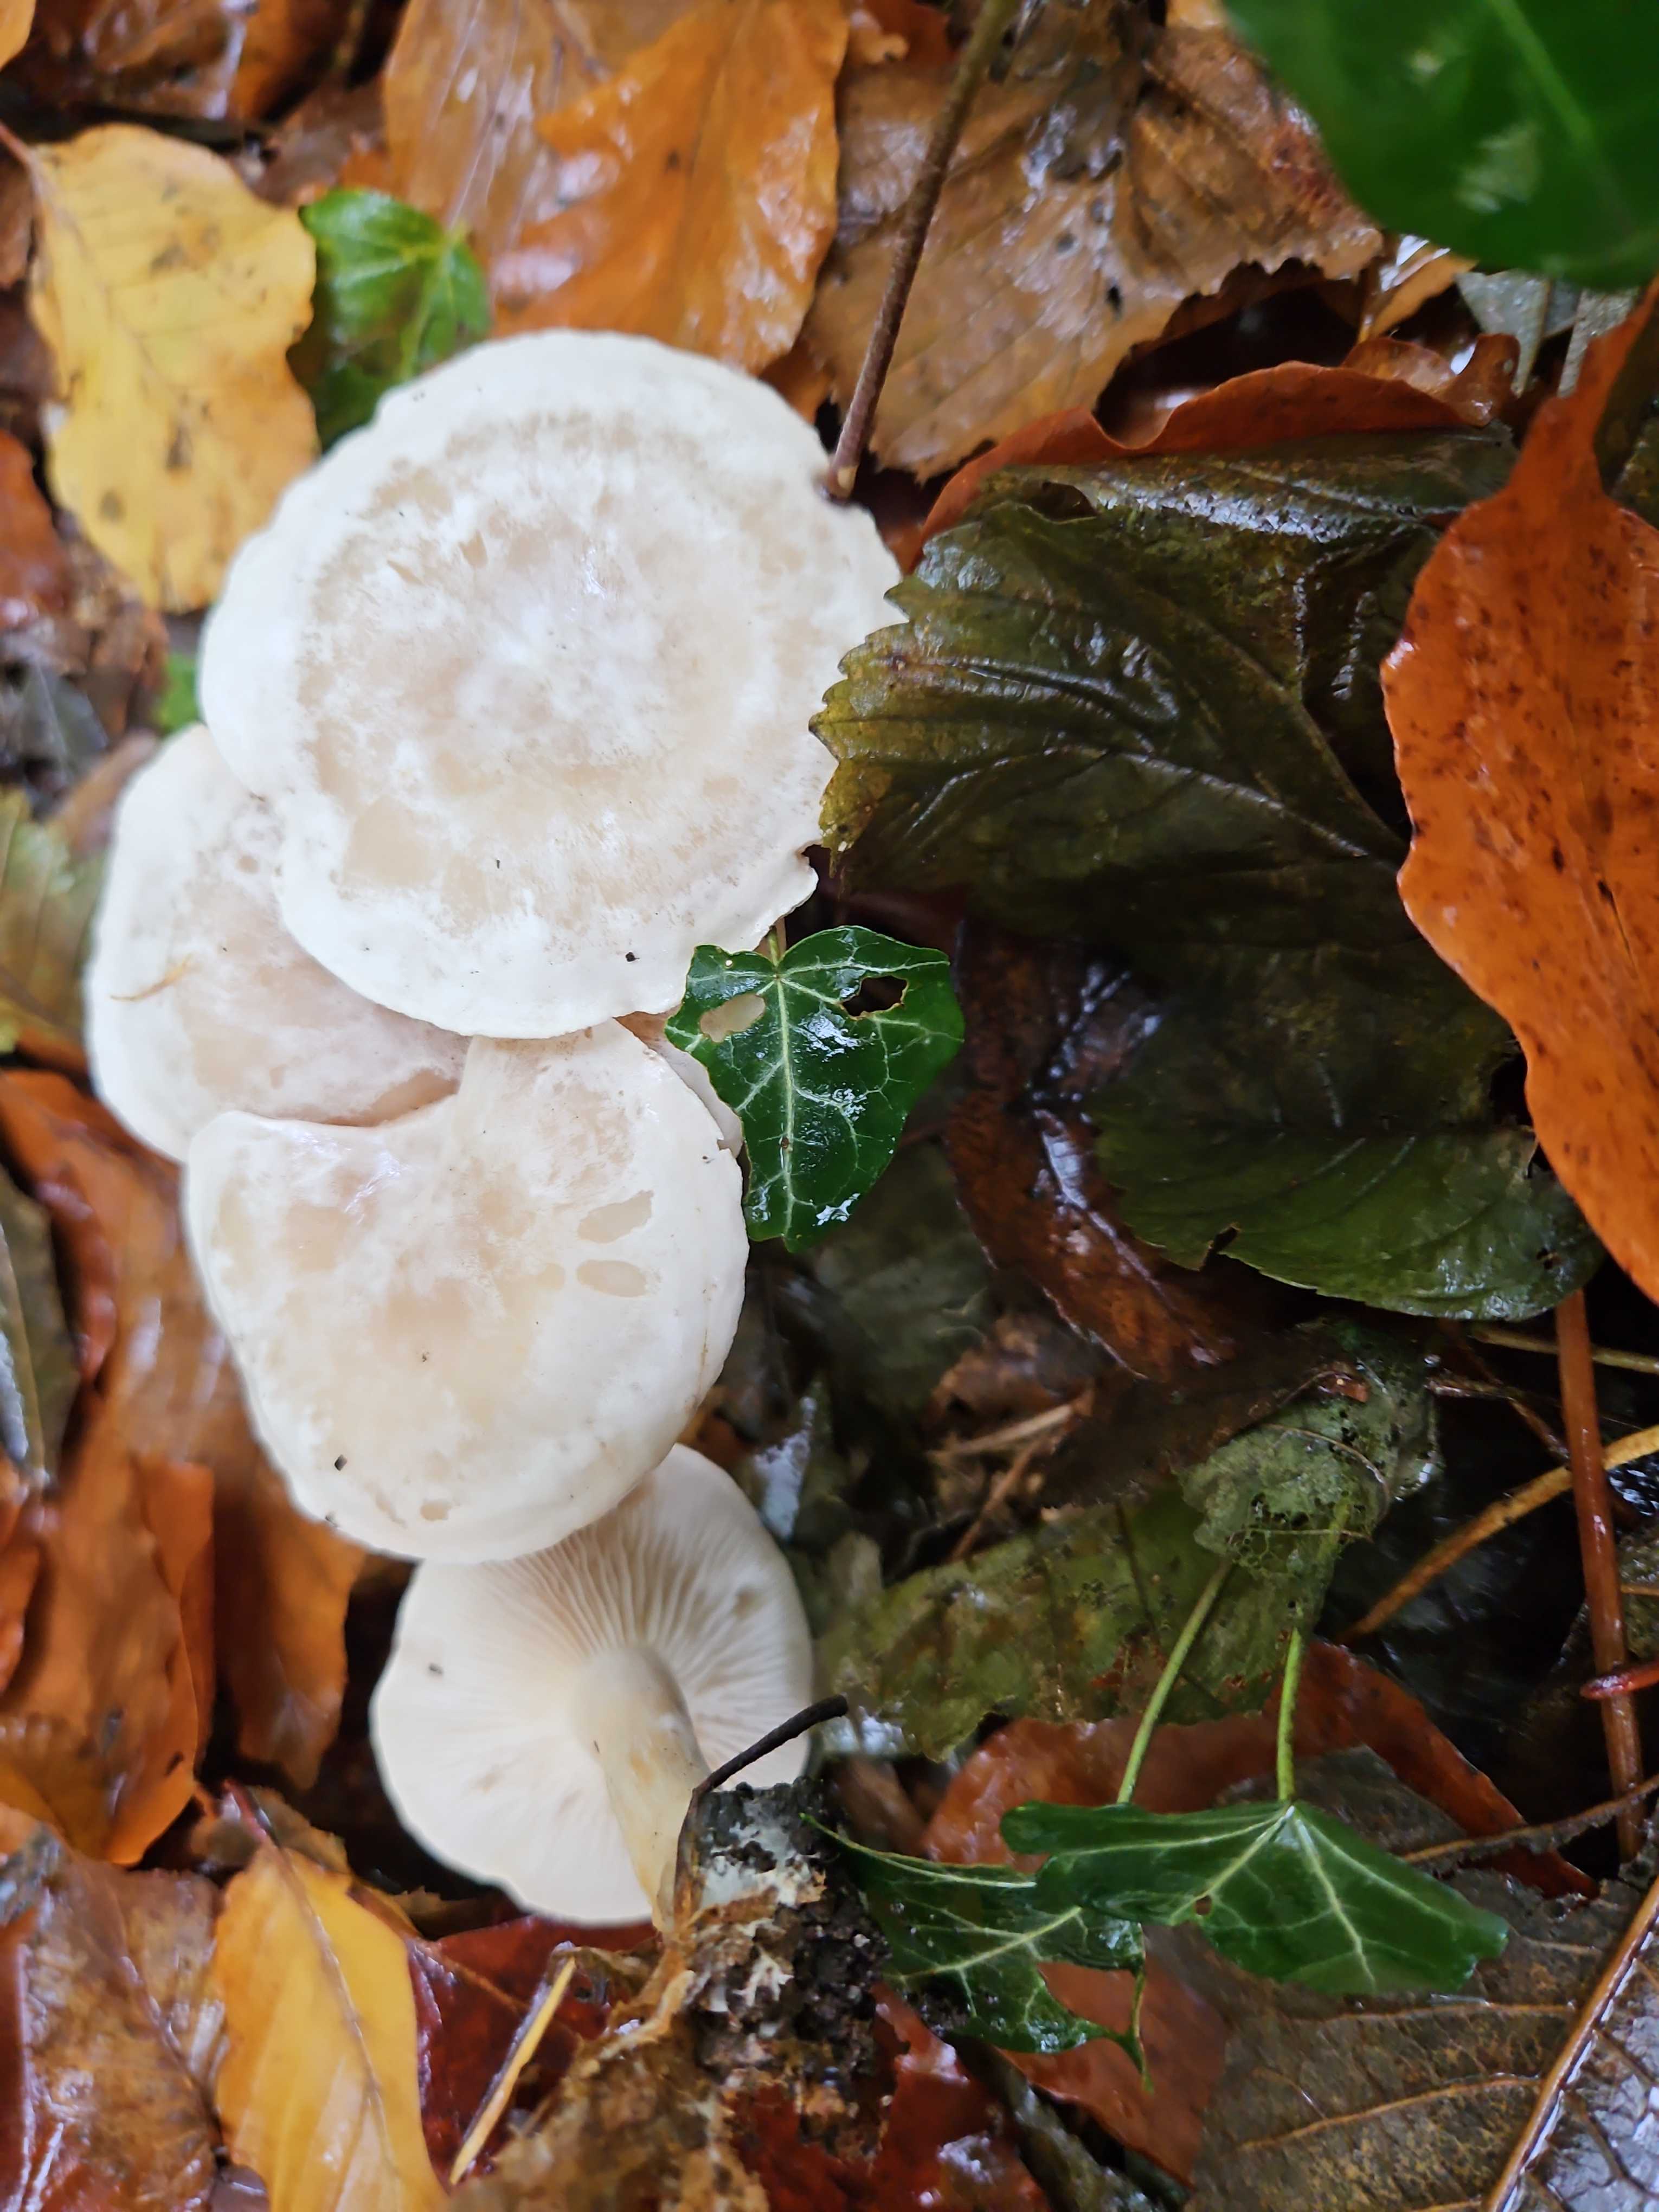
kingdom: Fungi
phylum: Basidiomycota
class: Agaricomycetes
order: Agaricales
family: Tricholomataceae
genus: Clitocybe
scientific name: Clitocybe phyllophila
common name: løv-tragthat
